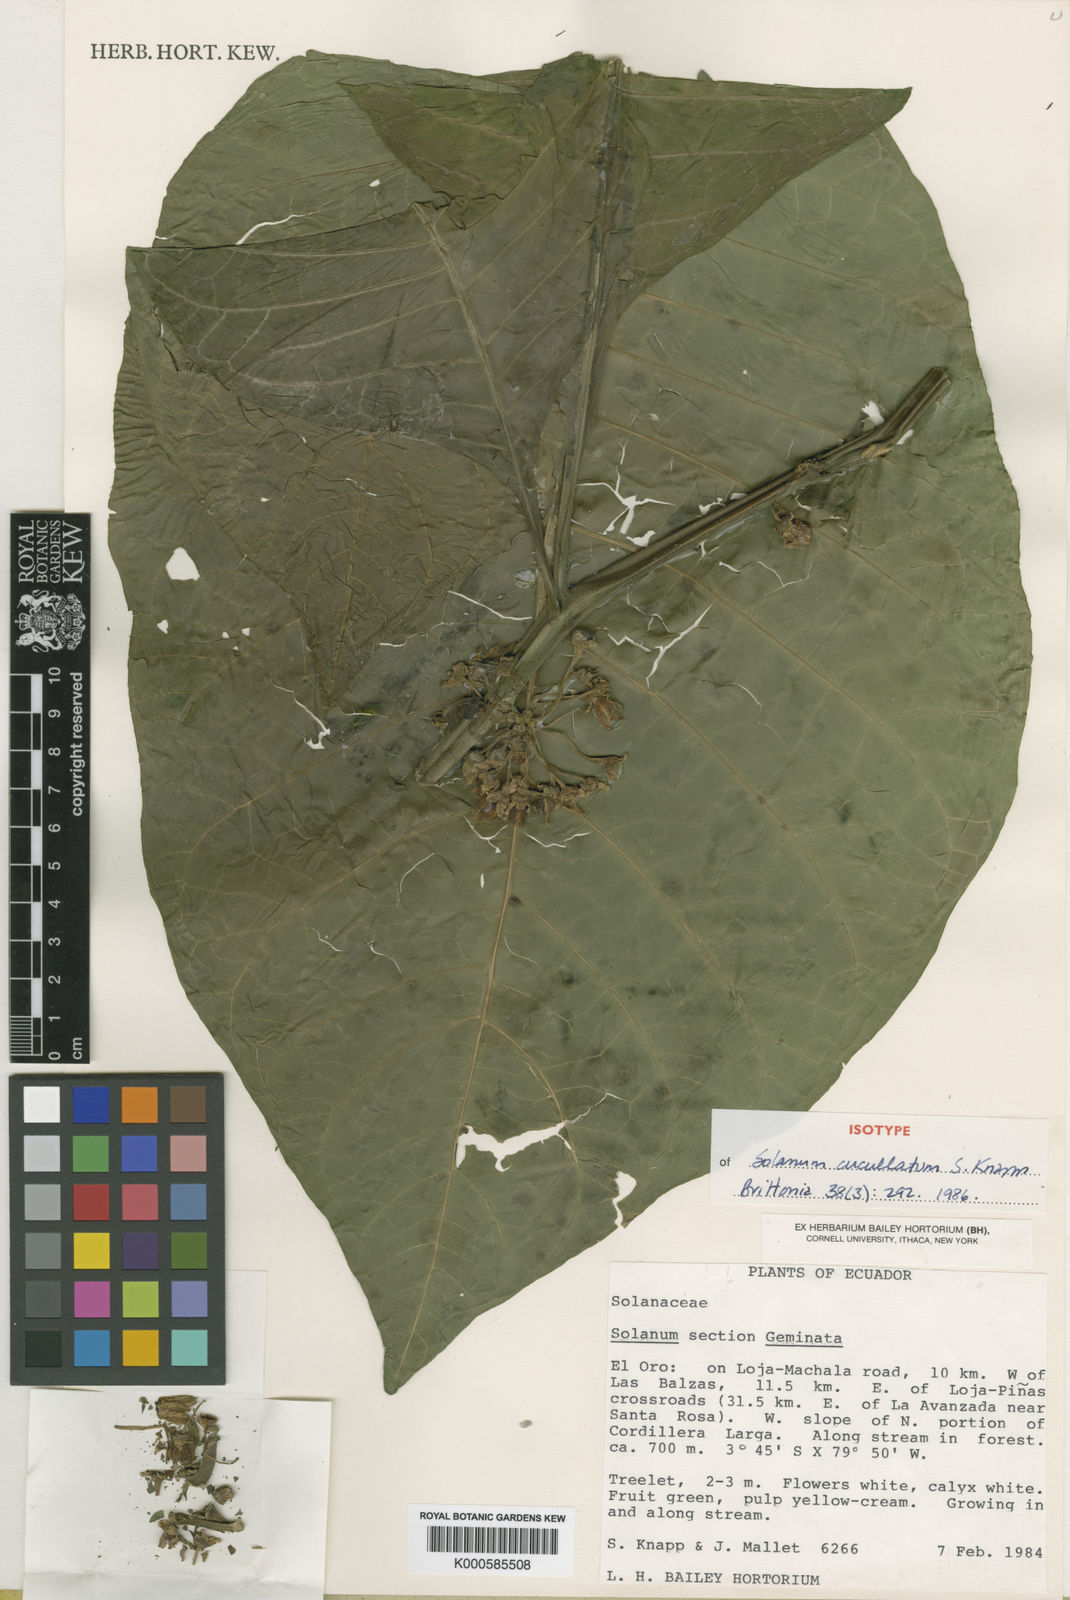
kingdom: Plantae
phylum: Tracheophyta
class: Magnoliopsida
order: Solanales
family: Solanaceae
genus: Solanum
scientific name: Solanum cucullatum
